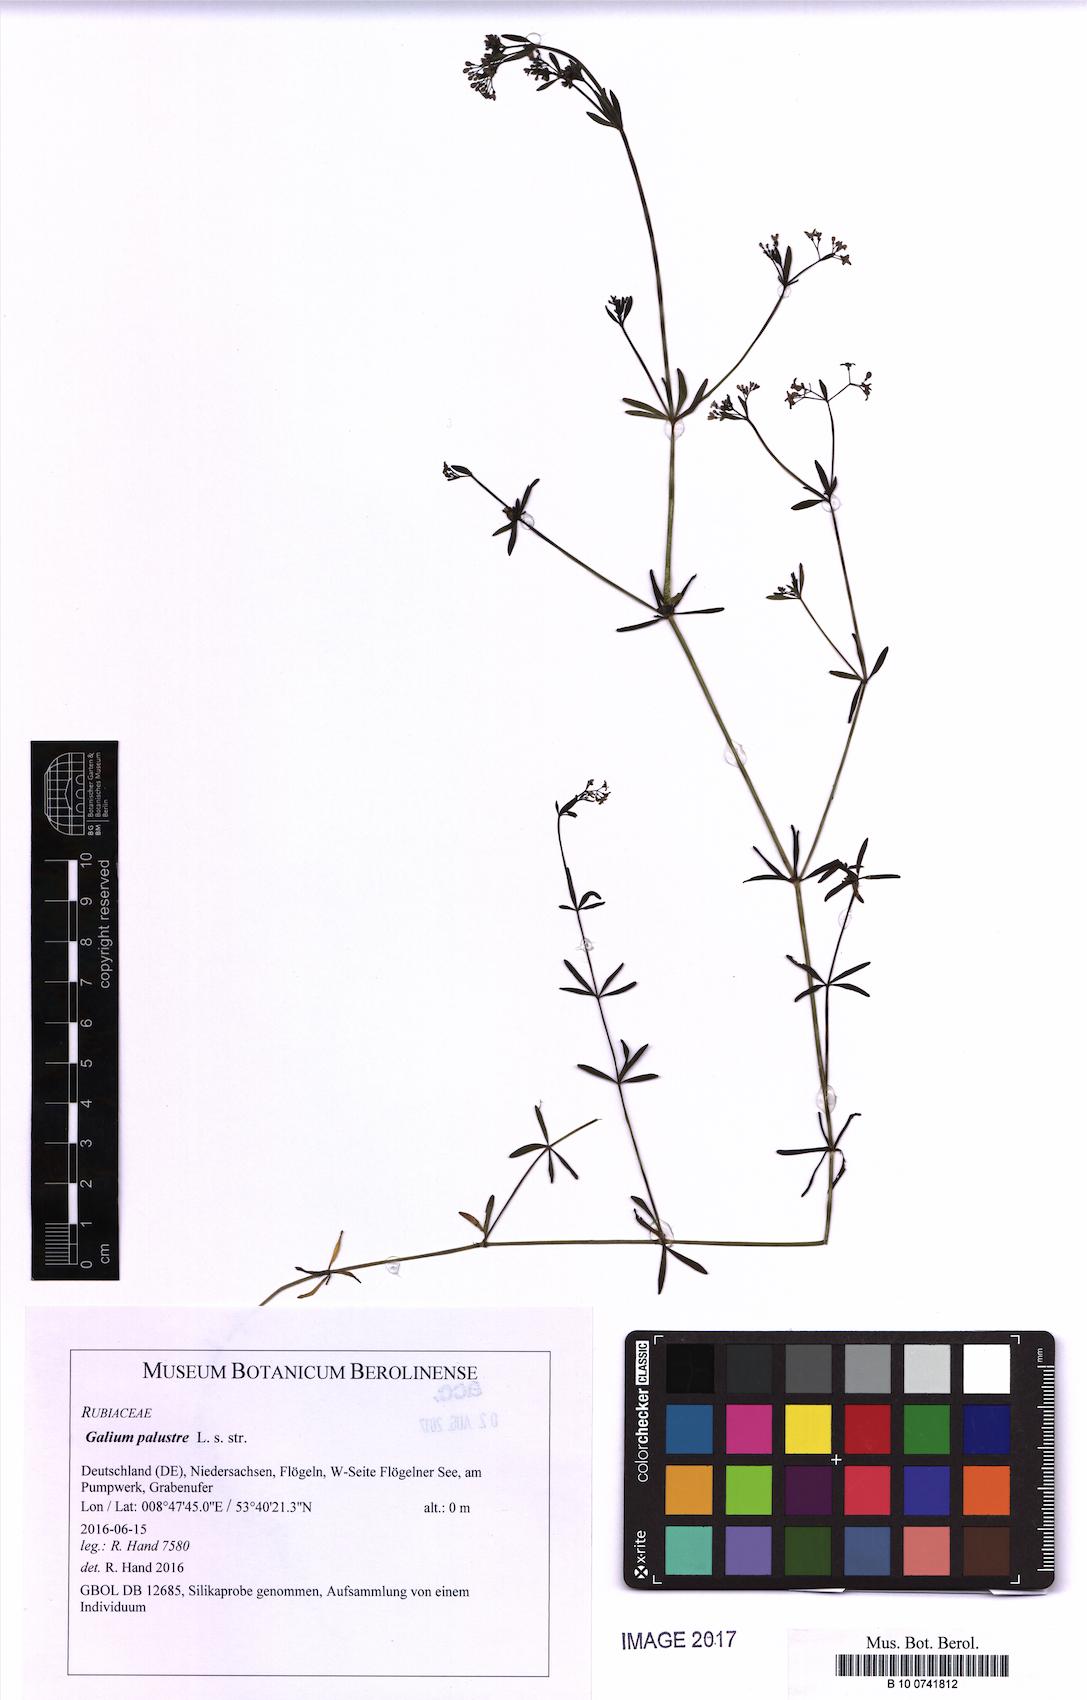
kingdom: Plantae
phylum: Tracheophyta
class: Magnoliopsida
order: Gentianales
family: Rubiaceae
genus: Galium
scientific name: Galium palustre
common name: Common marsh-bedstraw
